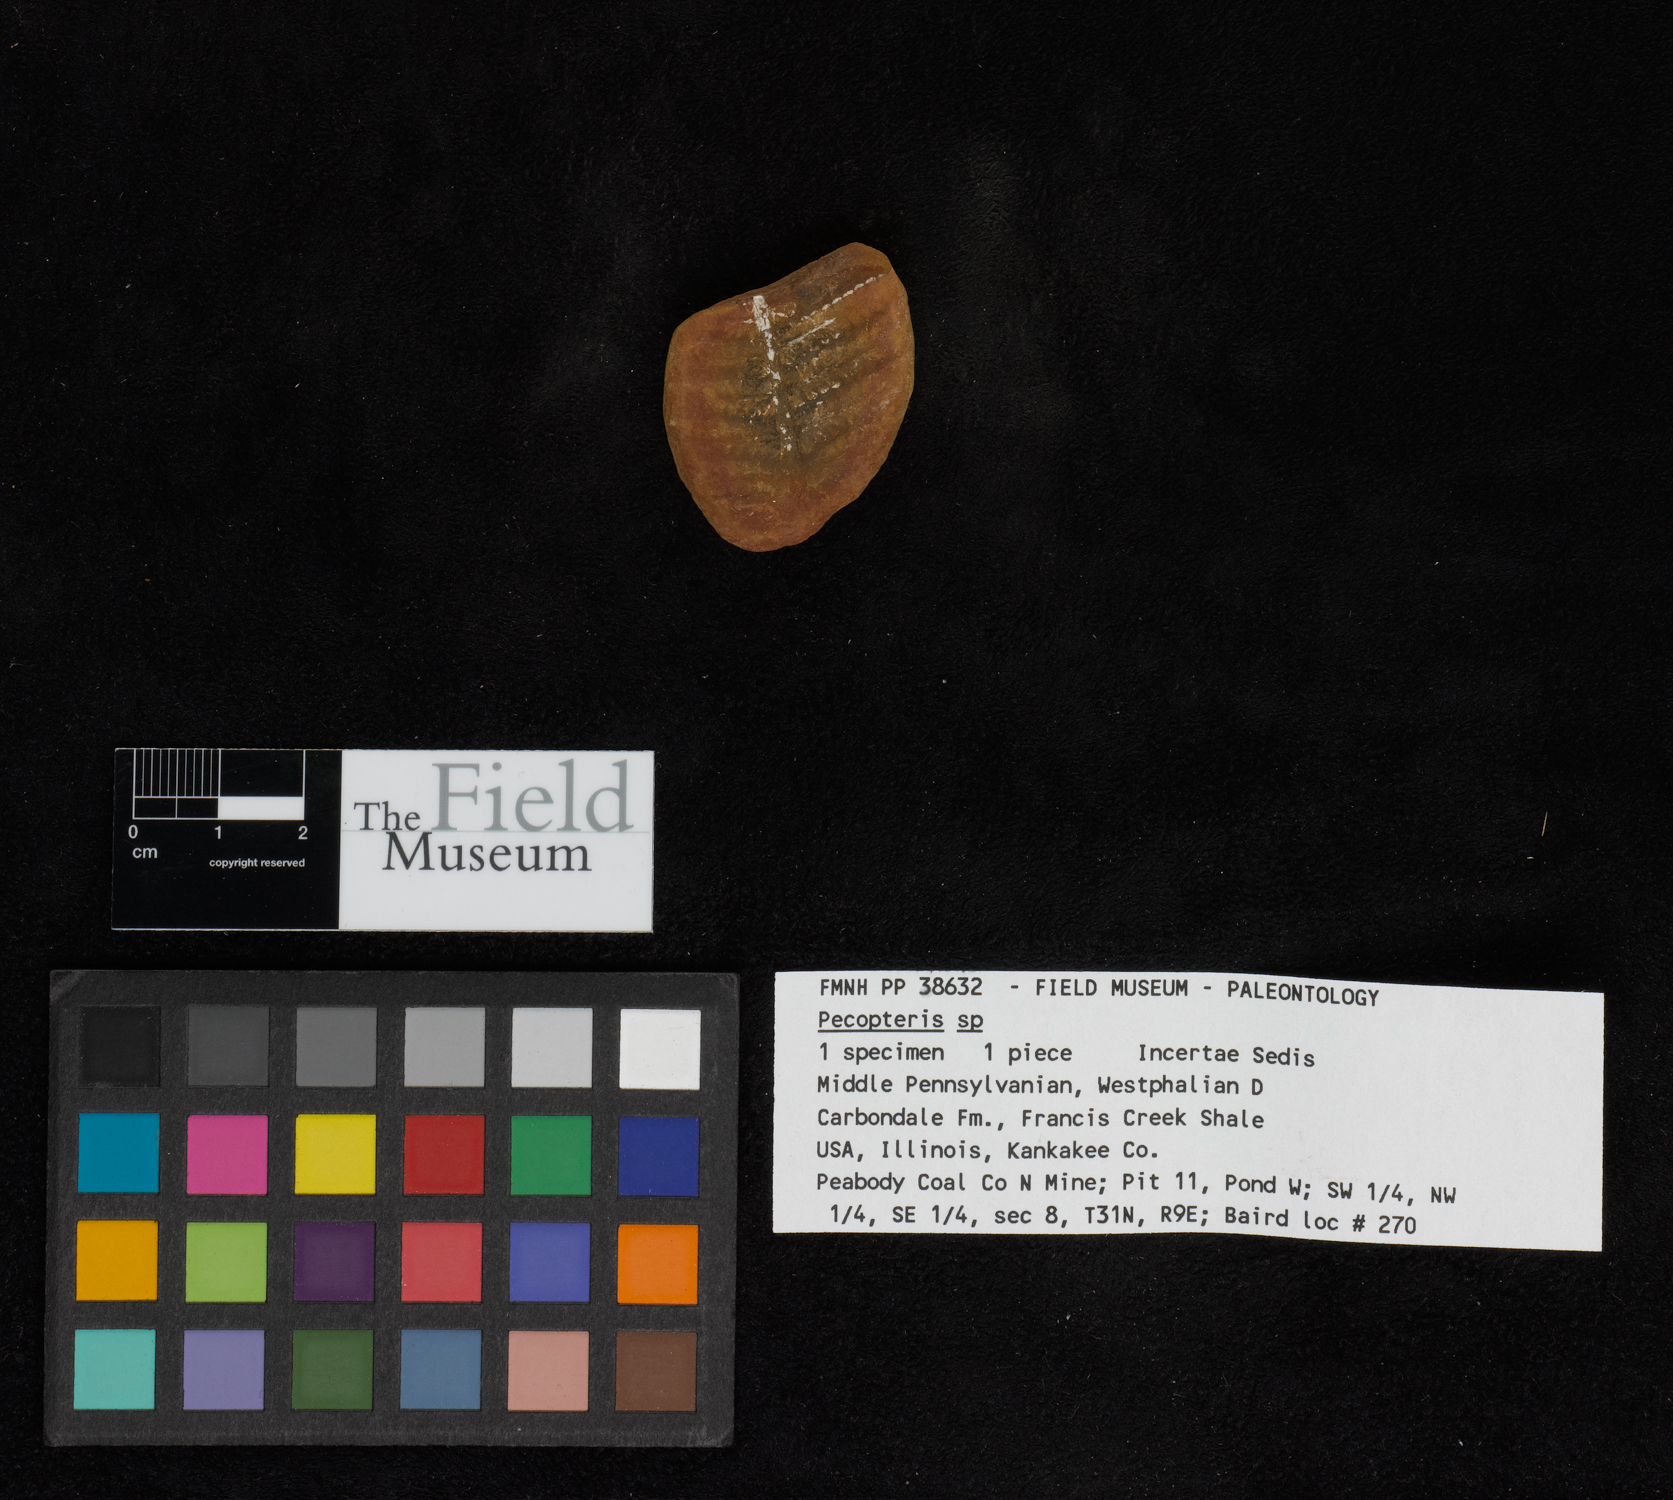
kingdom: Plantae
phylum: Tracheophyta
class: Polypodiopsida
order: Marattiales
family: Asterothecaceae
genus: Pecopteris
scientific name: Pecopteris
